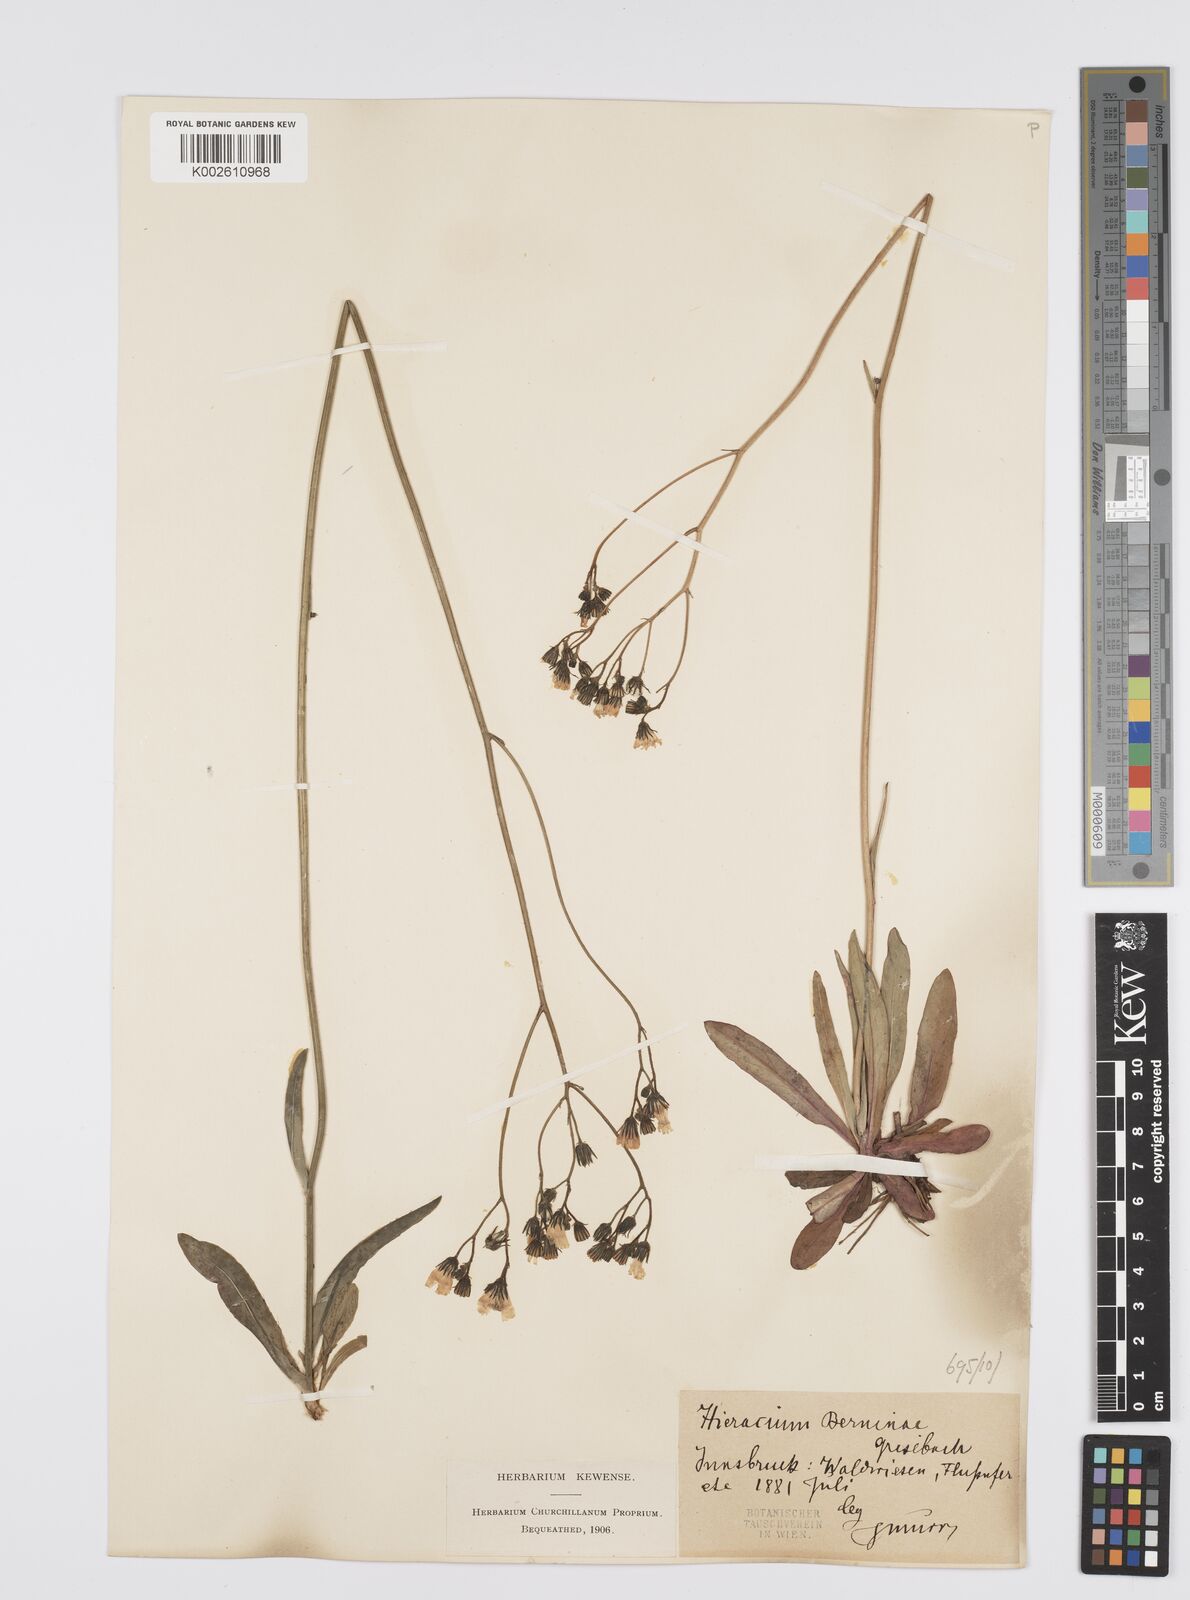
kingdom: Plantae
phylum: Tracheophyta
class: Magnoliopsida
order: Asterales
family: Asteraceae
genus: Pilosella
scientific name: Pilosella piloselloides
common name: Glaucous king-devil
